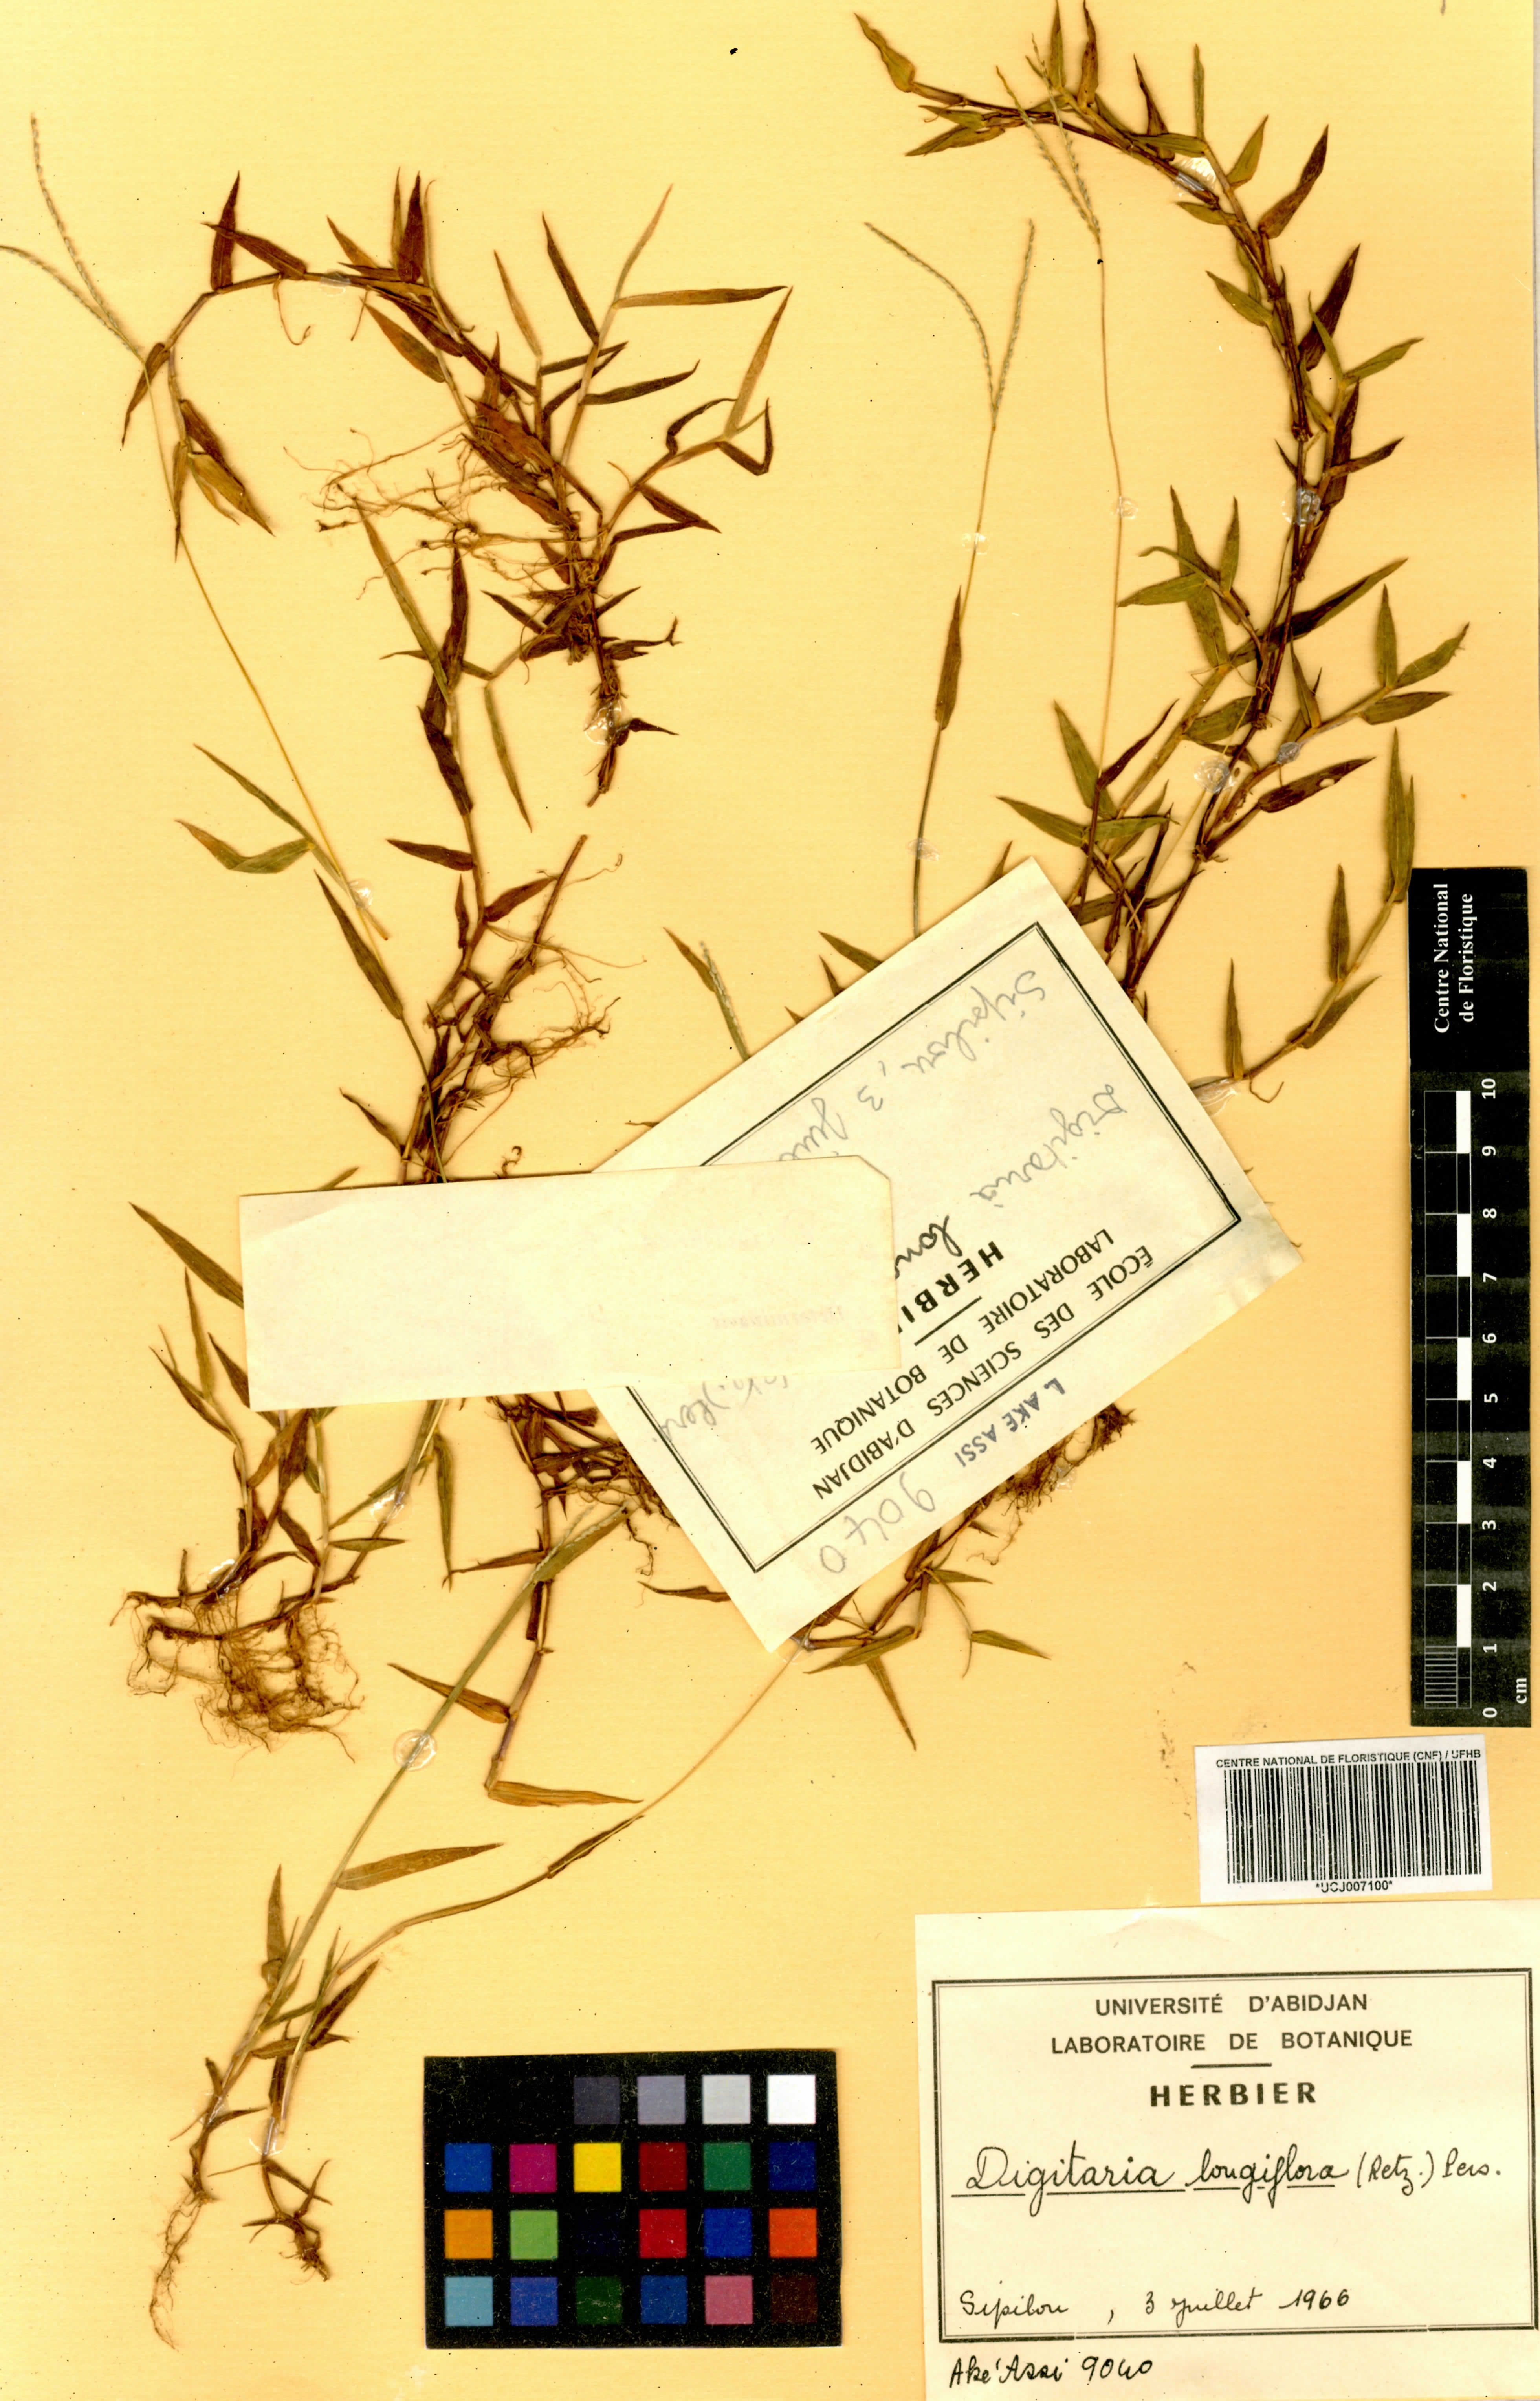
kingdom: Plantae
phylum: Tracheophyta
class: Liliopsida
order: Poales
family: Poaceae
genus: Digitaria
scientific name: Digitaria longiflora
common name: Wire crabgrass
